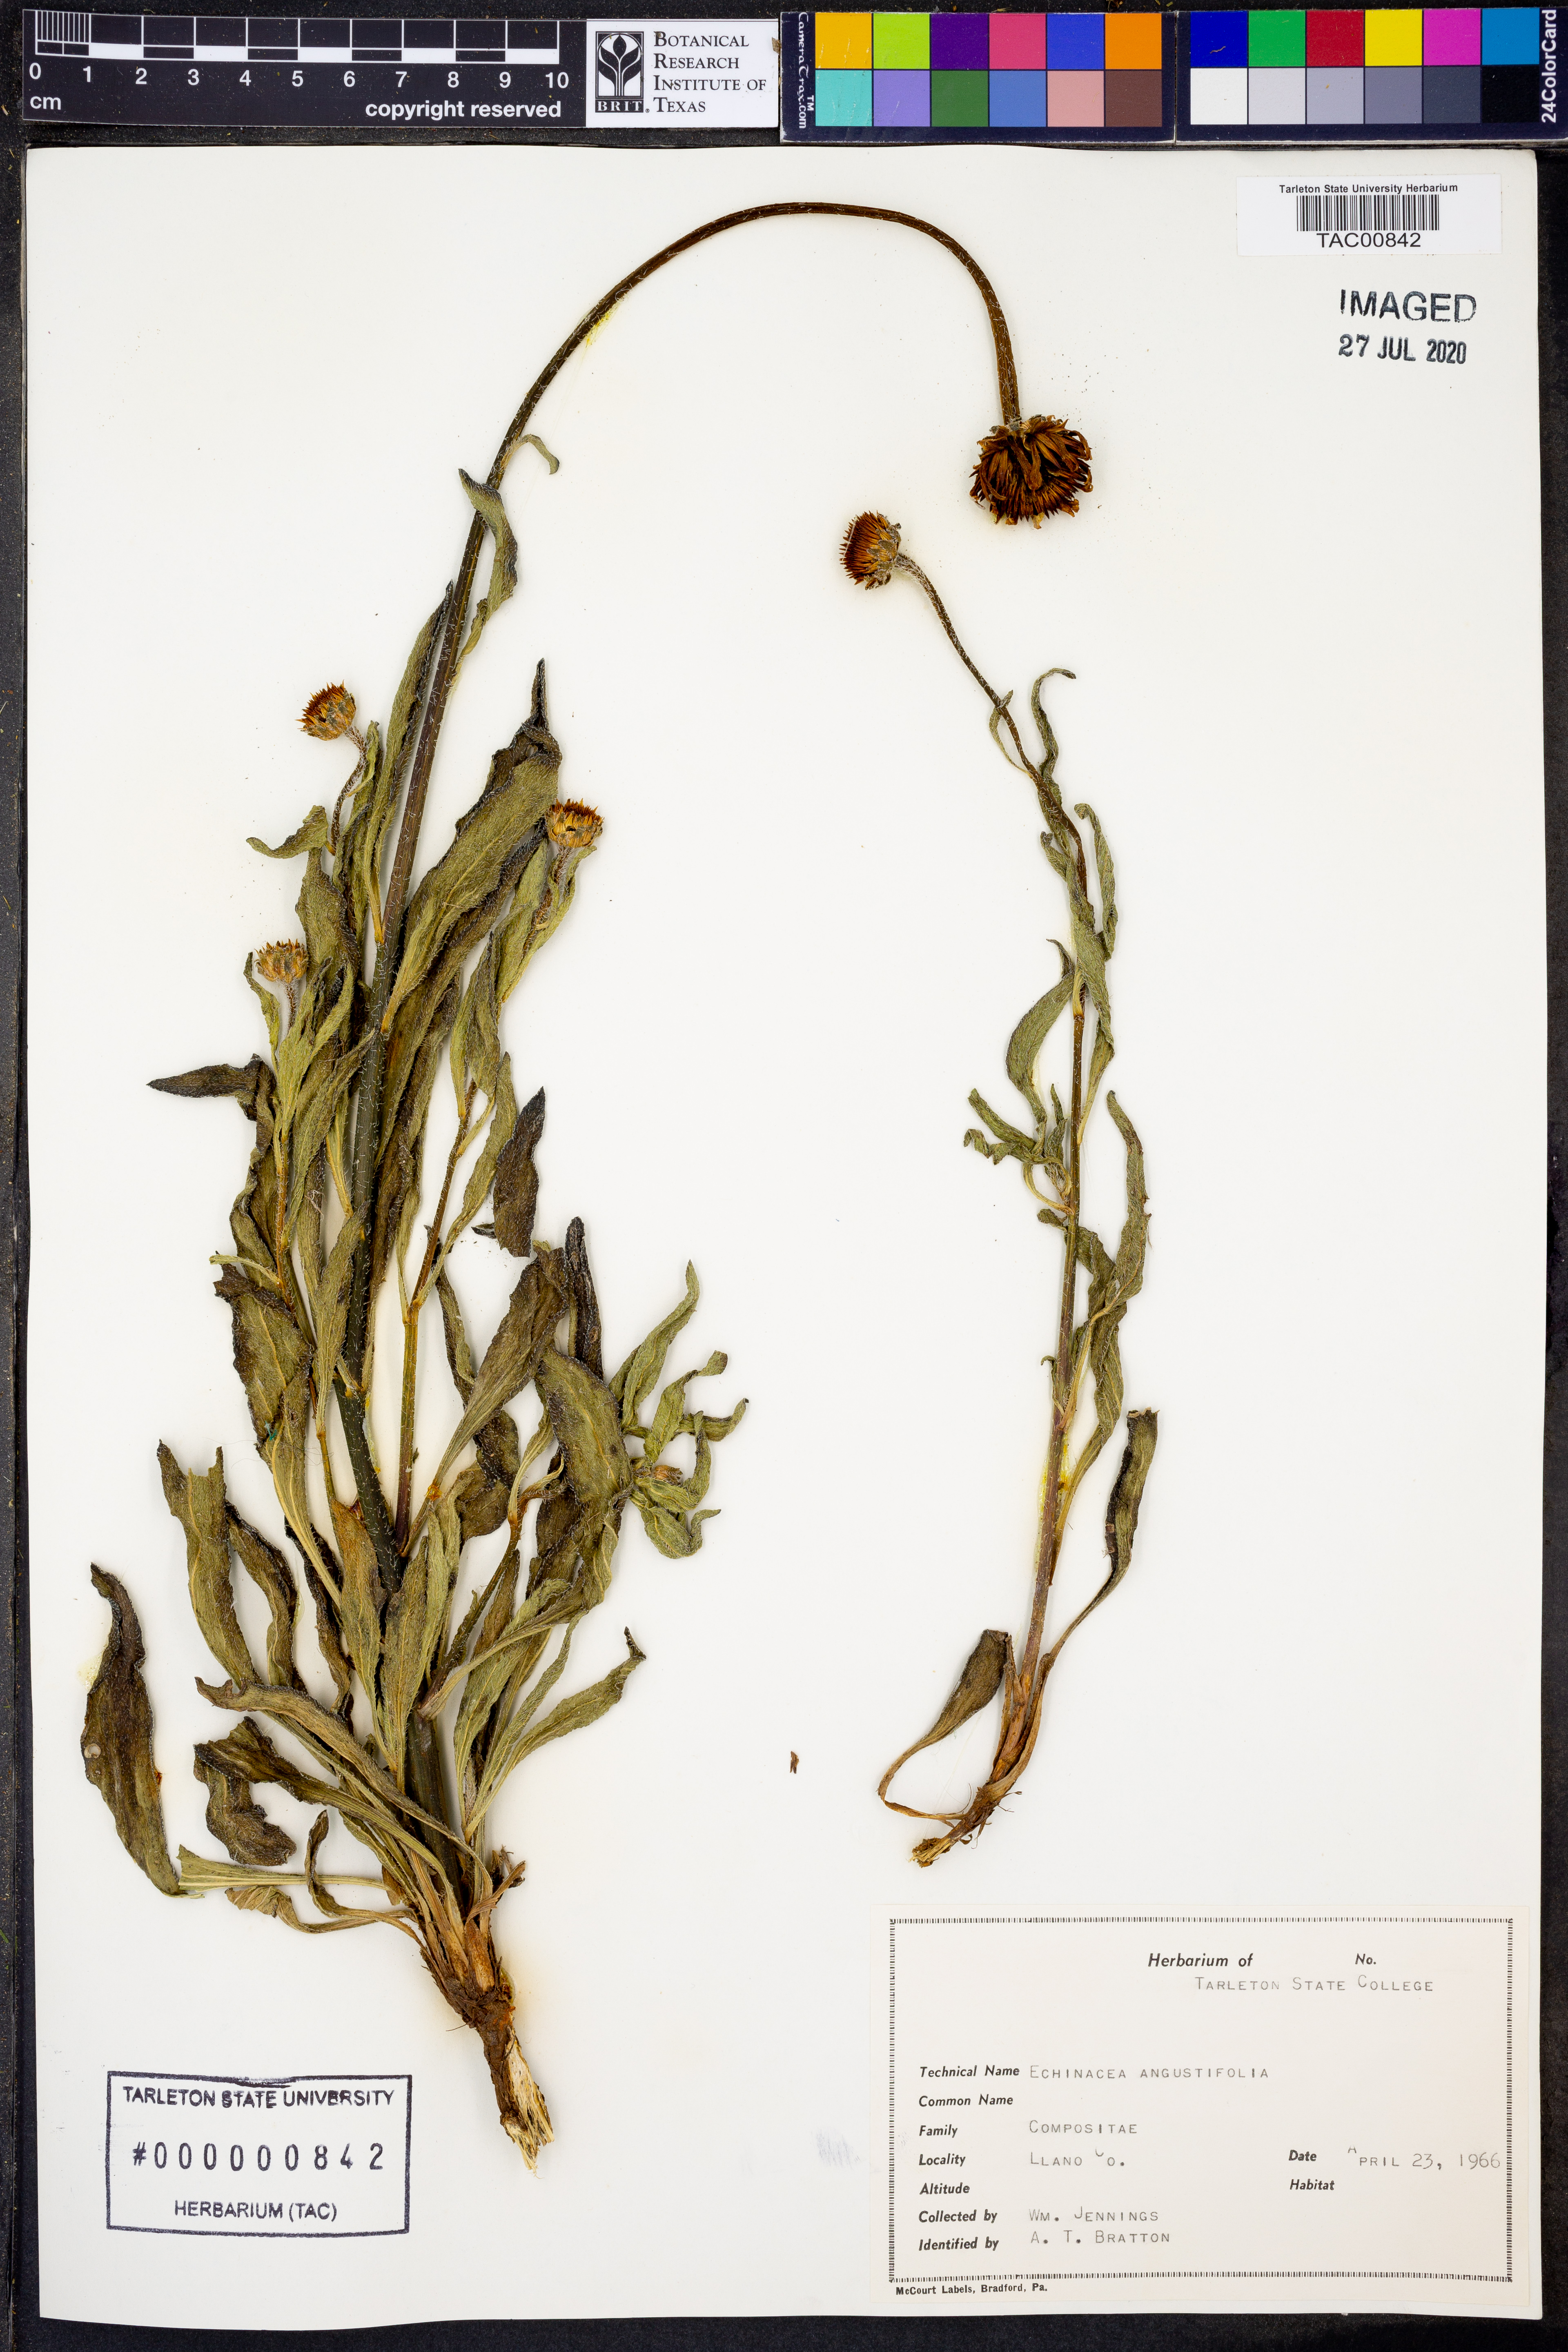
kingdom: Plantae
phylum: Tracheophyta
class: Magnoliopsida
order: Asterales
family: Asteraceae
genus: Echinacea
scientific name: Echinacea angustifolia
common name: Black-sampson echinacea
